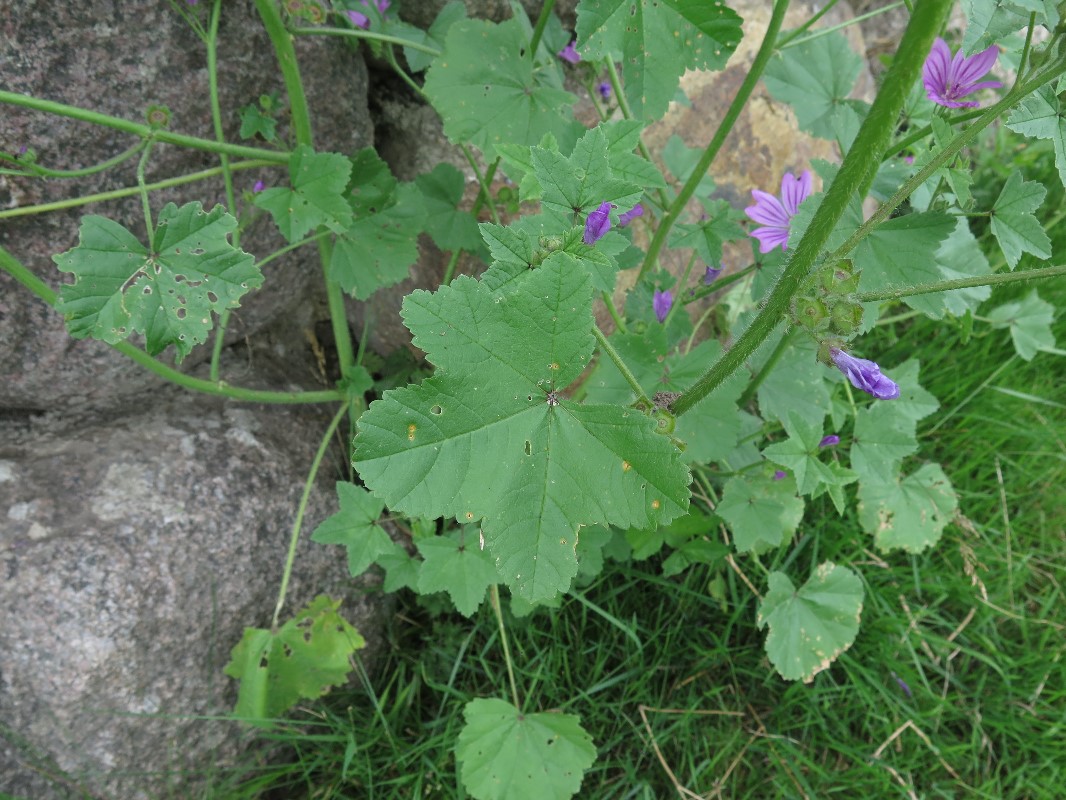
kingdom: Fungi
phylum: Basidiomycota
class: Pucciniomycetes
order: Pucciniales
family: Pucciniaceae
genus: Puccinia
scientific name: Puccinia malvacearum
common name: stokrose-tvecellerust
